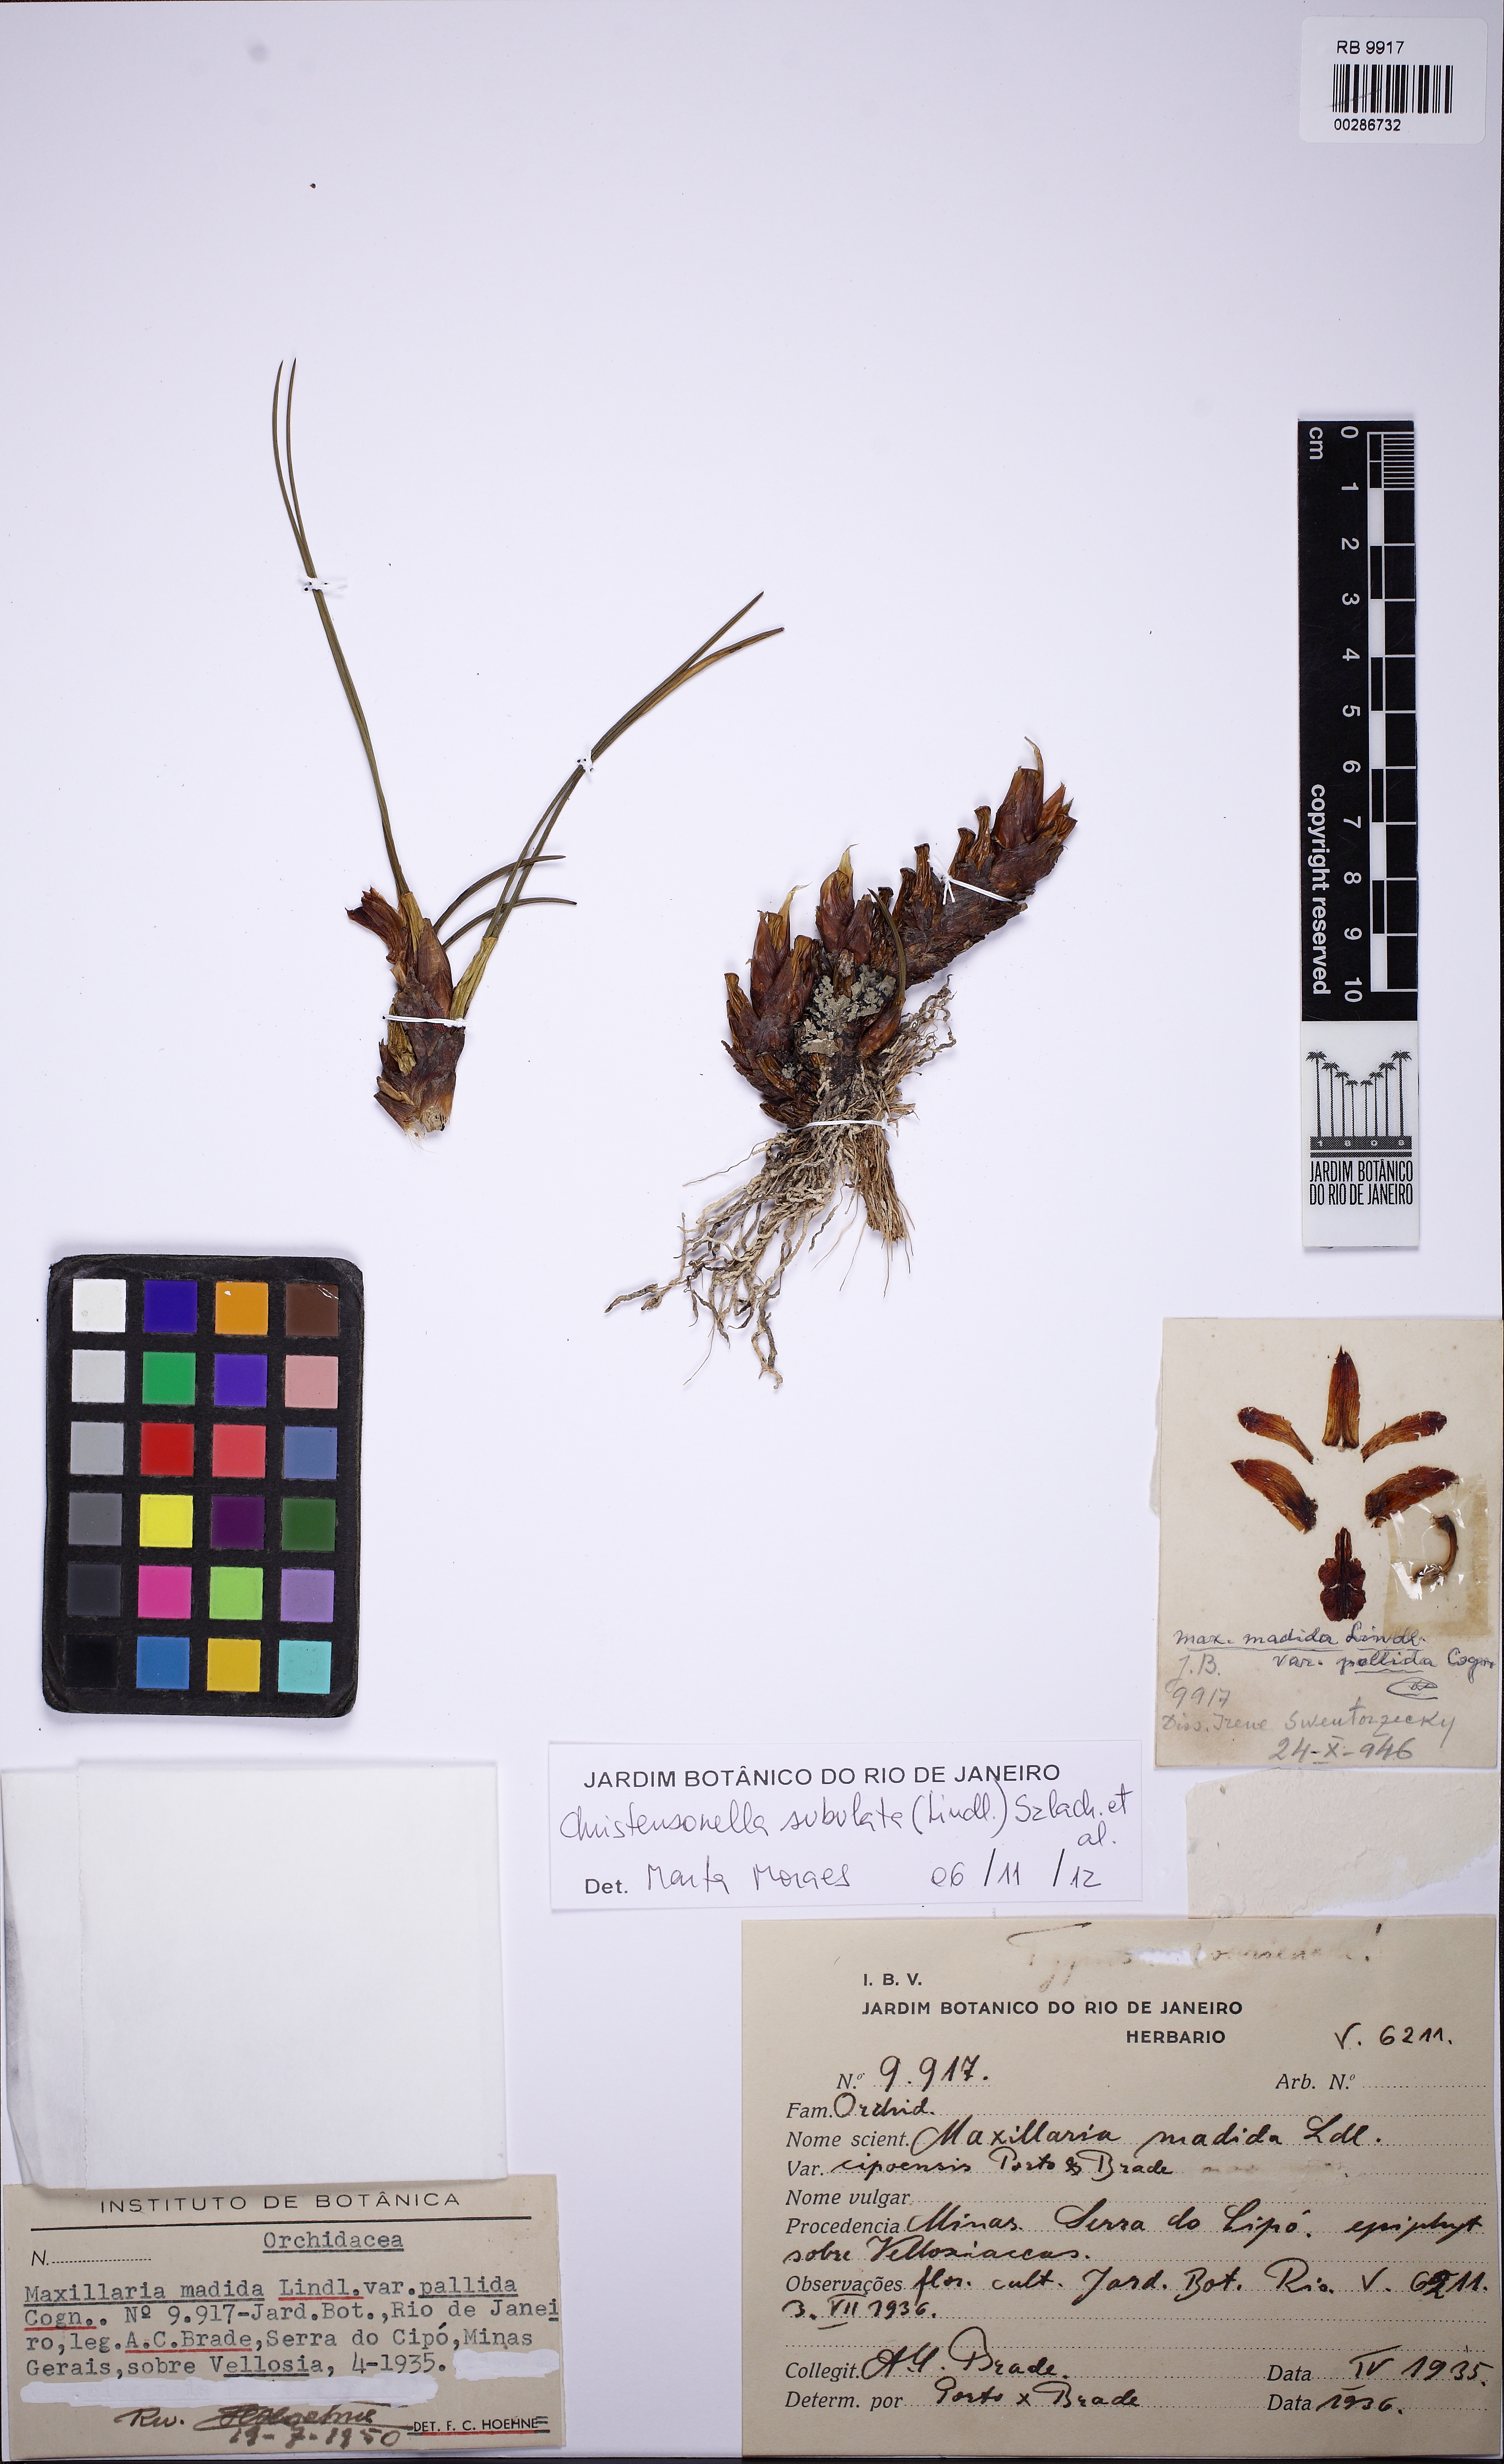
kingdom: Plantae
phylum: Tracheophyta
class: Liliopsida
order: Asparagales
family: Orchidaceae
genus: Maxillaria
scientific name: Maxillaria subulata
